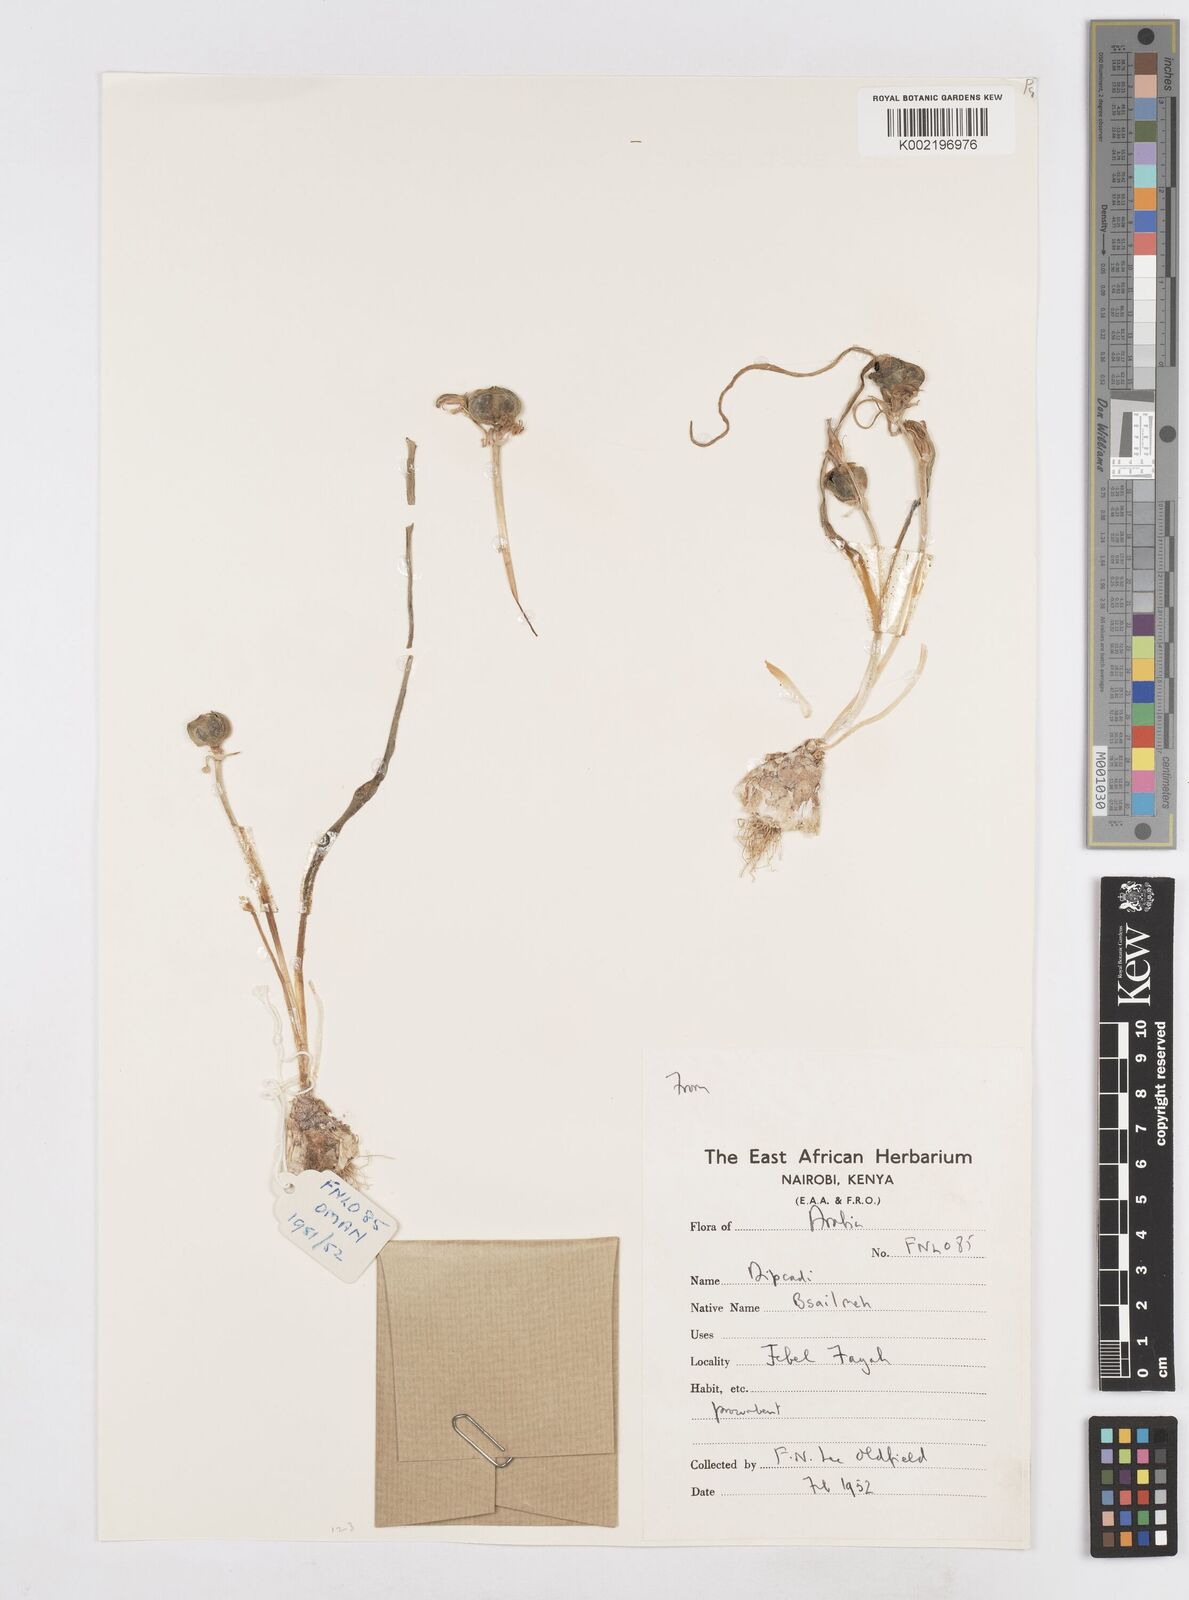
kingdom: Plantae
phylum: Tracheophyta
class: Liliopsida
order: Asparagales
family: Asparagaceae
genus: Dipcadi
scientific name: Dipcadi erythraeum
